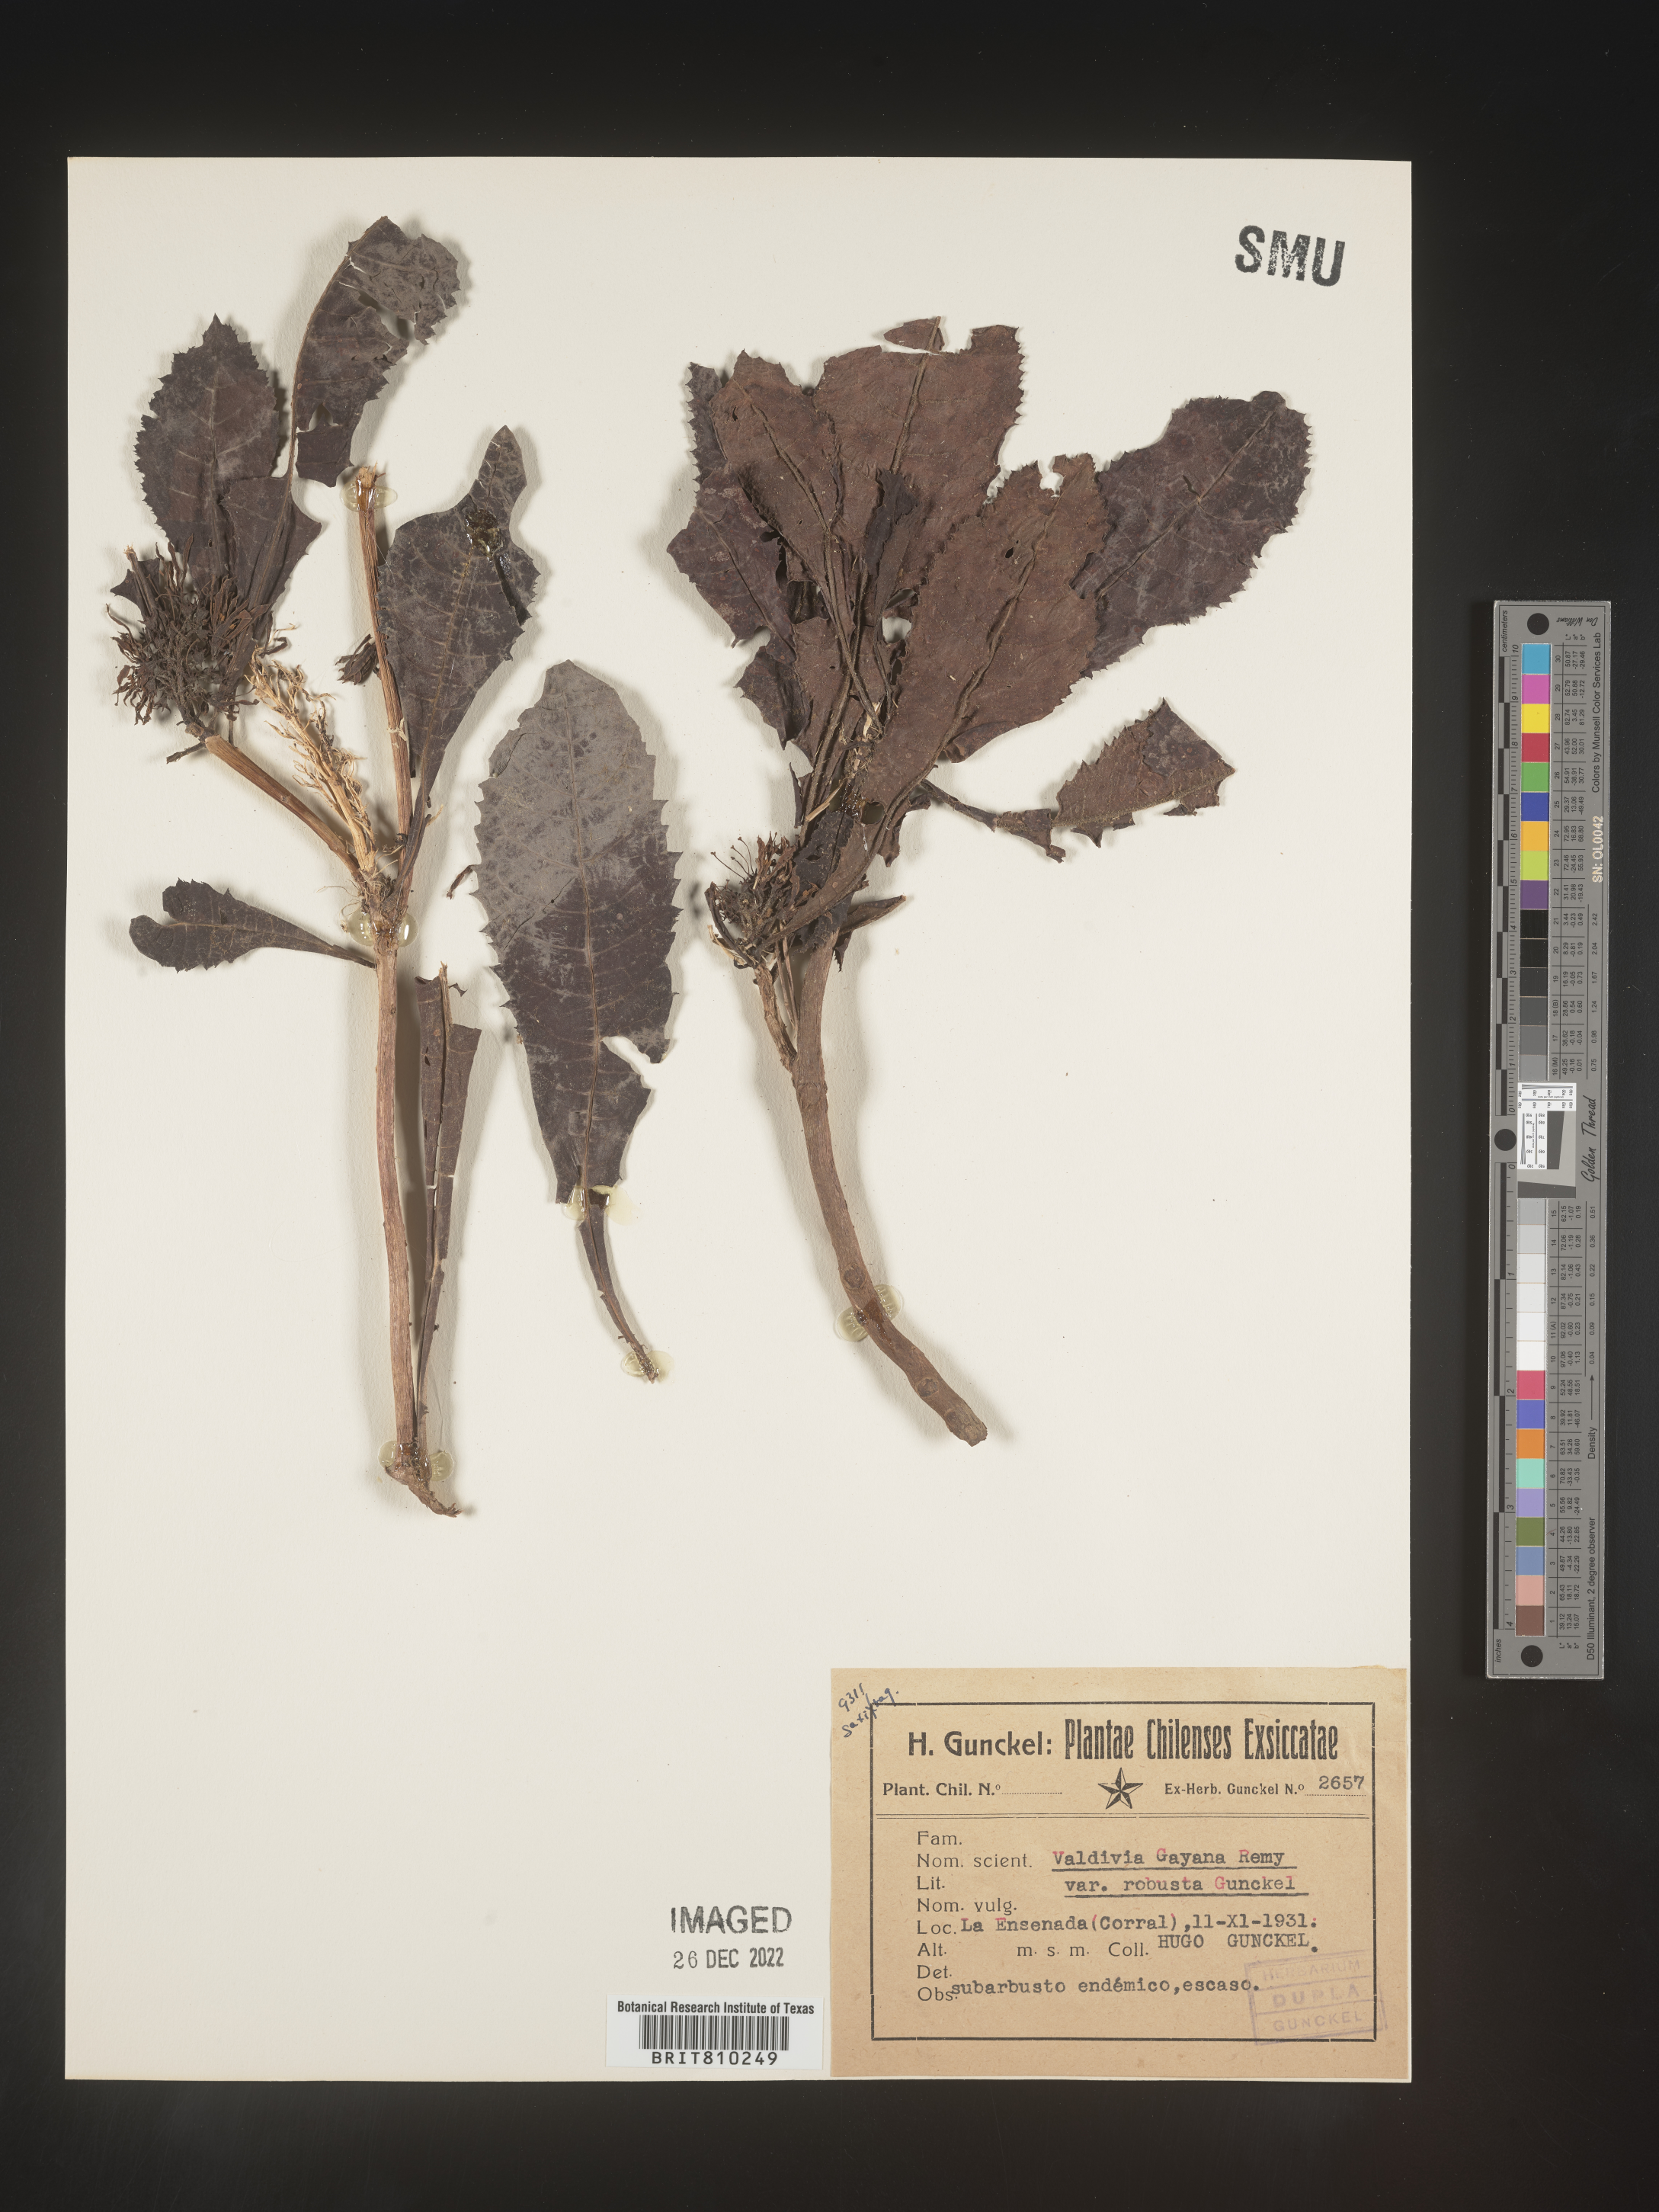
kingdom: Plantae
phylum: Tracheophyta
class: Magnoliopsida
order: Escalloniales
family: Escalloniaceae
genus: Valdivia
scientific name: Valdivia
